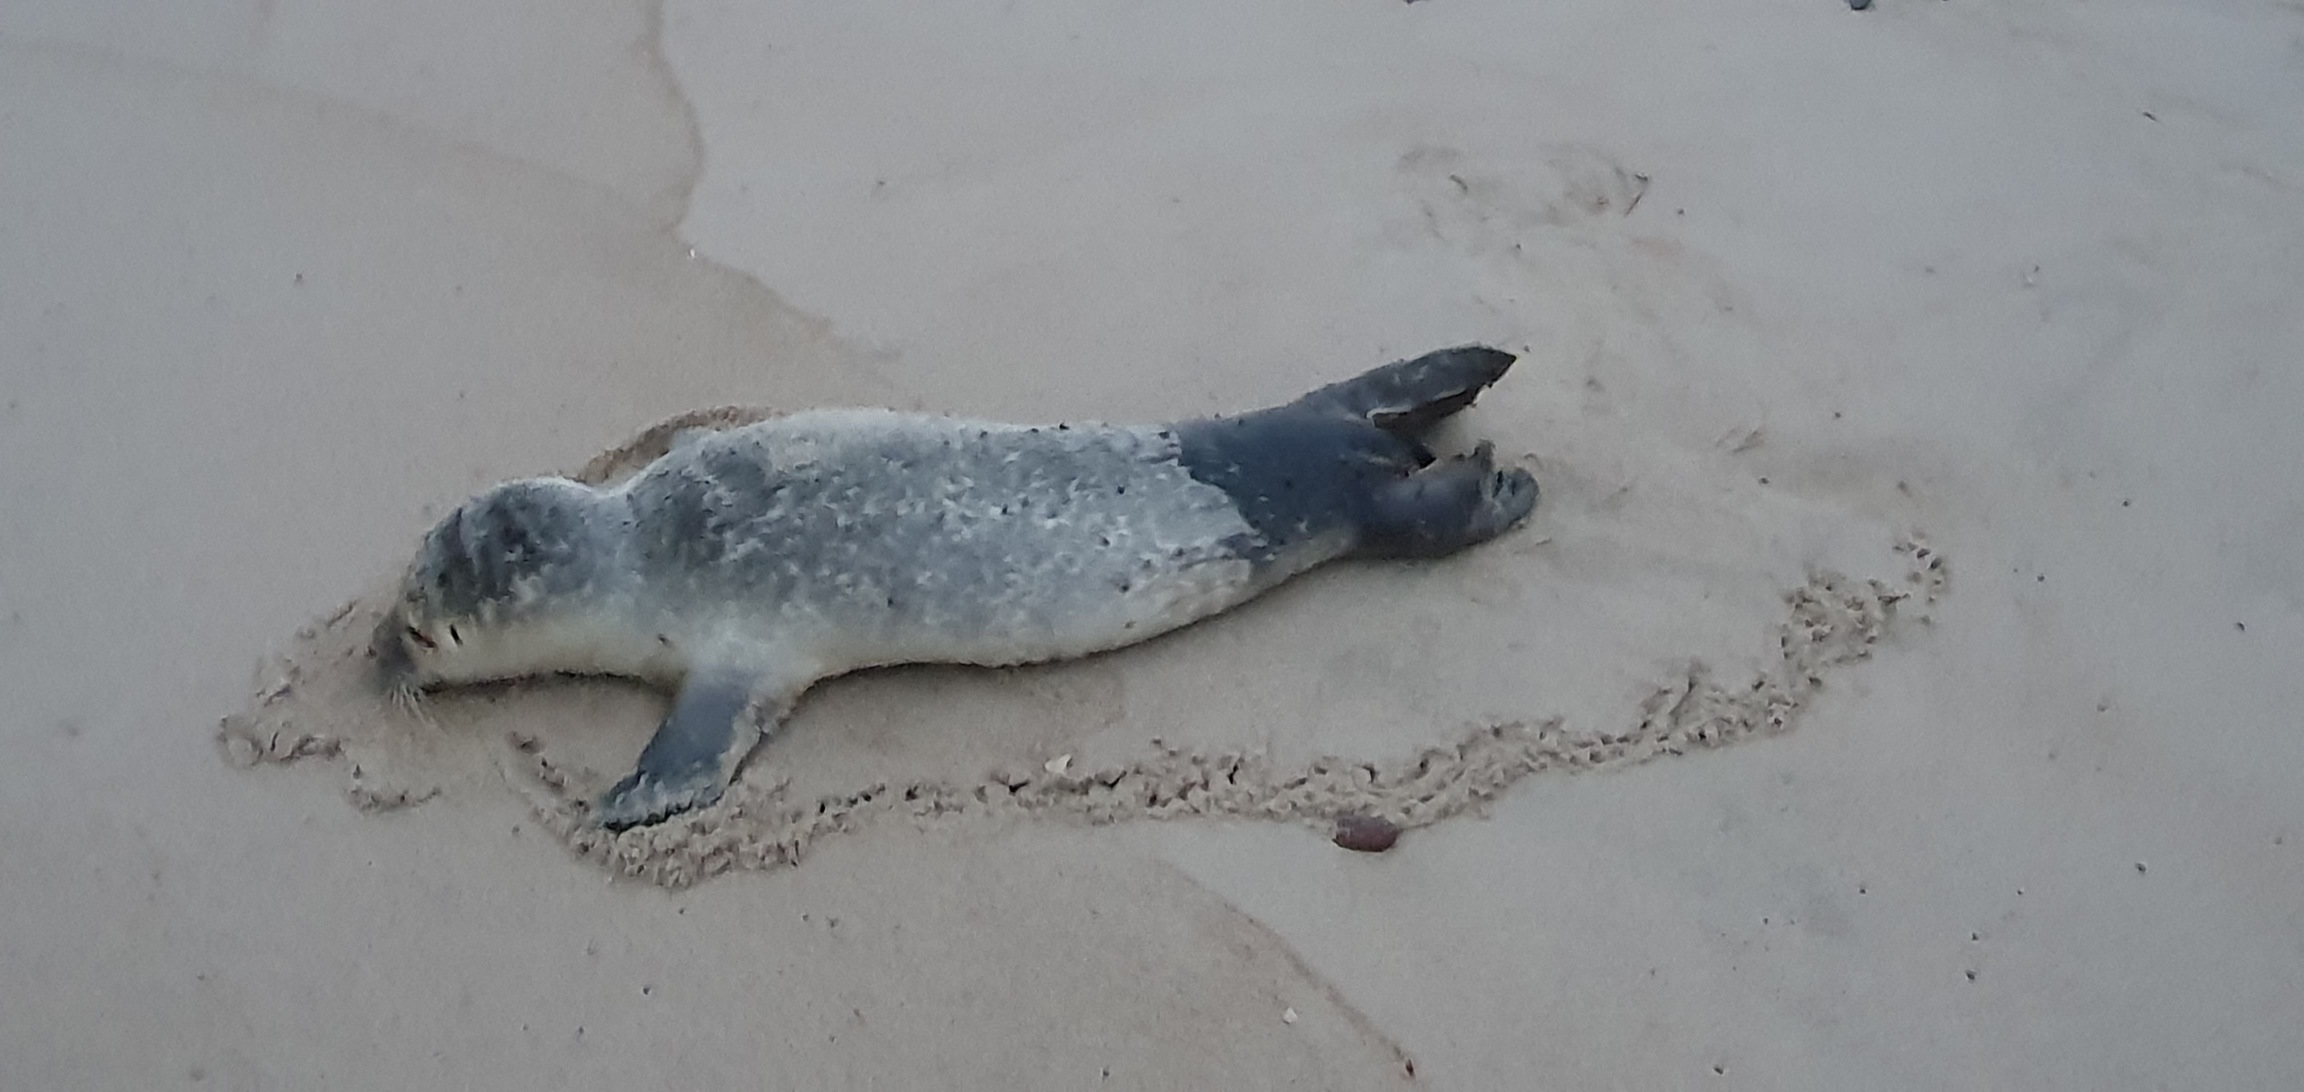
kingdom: Animalia
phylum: Chordata
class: Mammalia
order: Carnivora
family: Phocidae
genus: Phoca
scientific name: Phoca vitulina
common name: Spættet sæl
